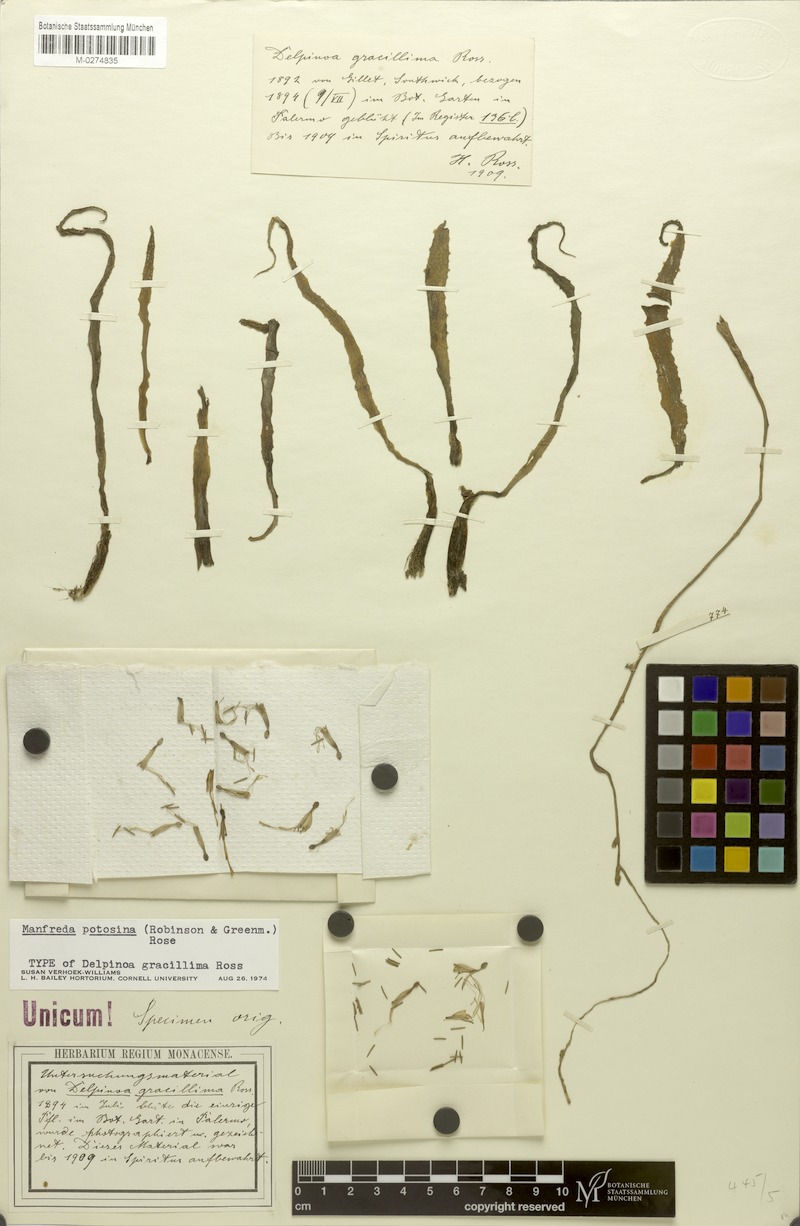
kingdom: Plantae
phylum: Tracheophyta
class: Liliopsida
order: Asparagales
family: Asparagaceae
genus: Agave
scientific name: Agave potosina
